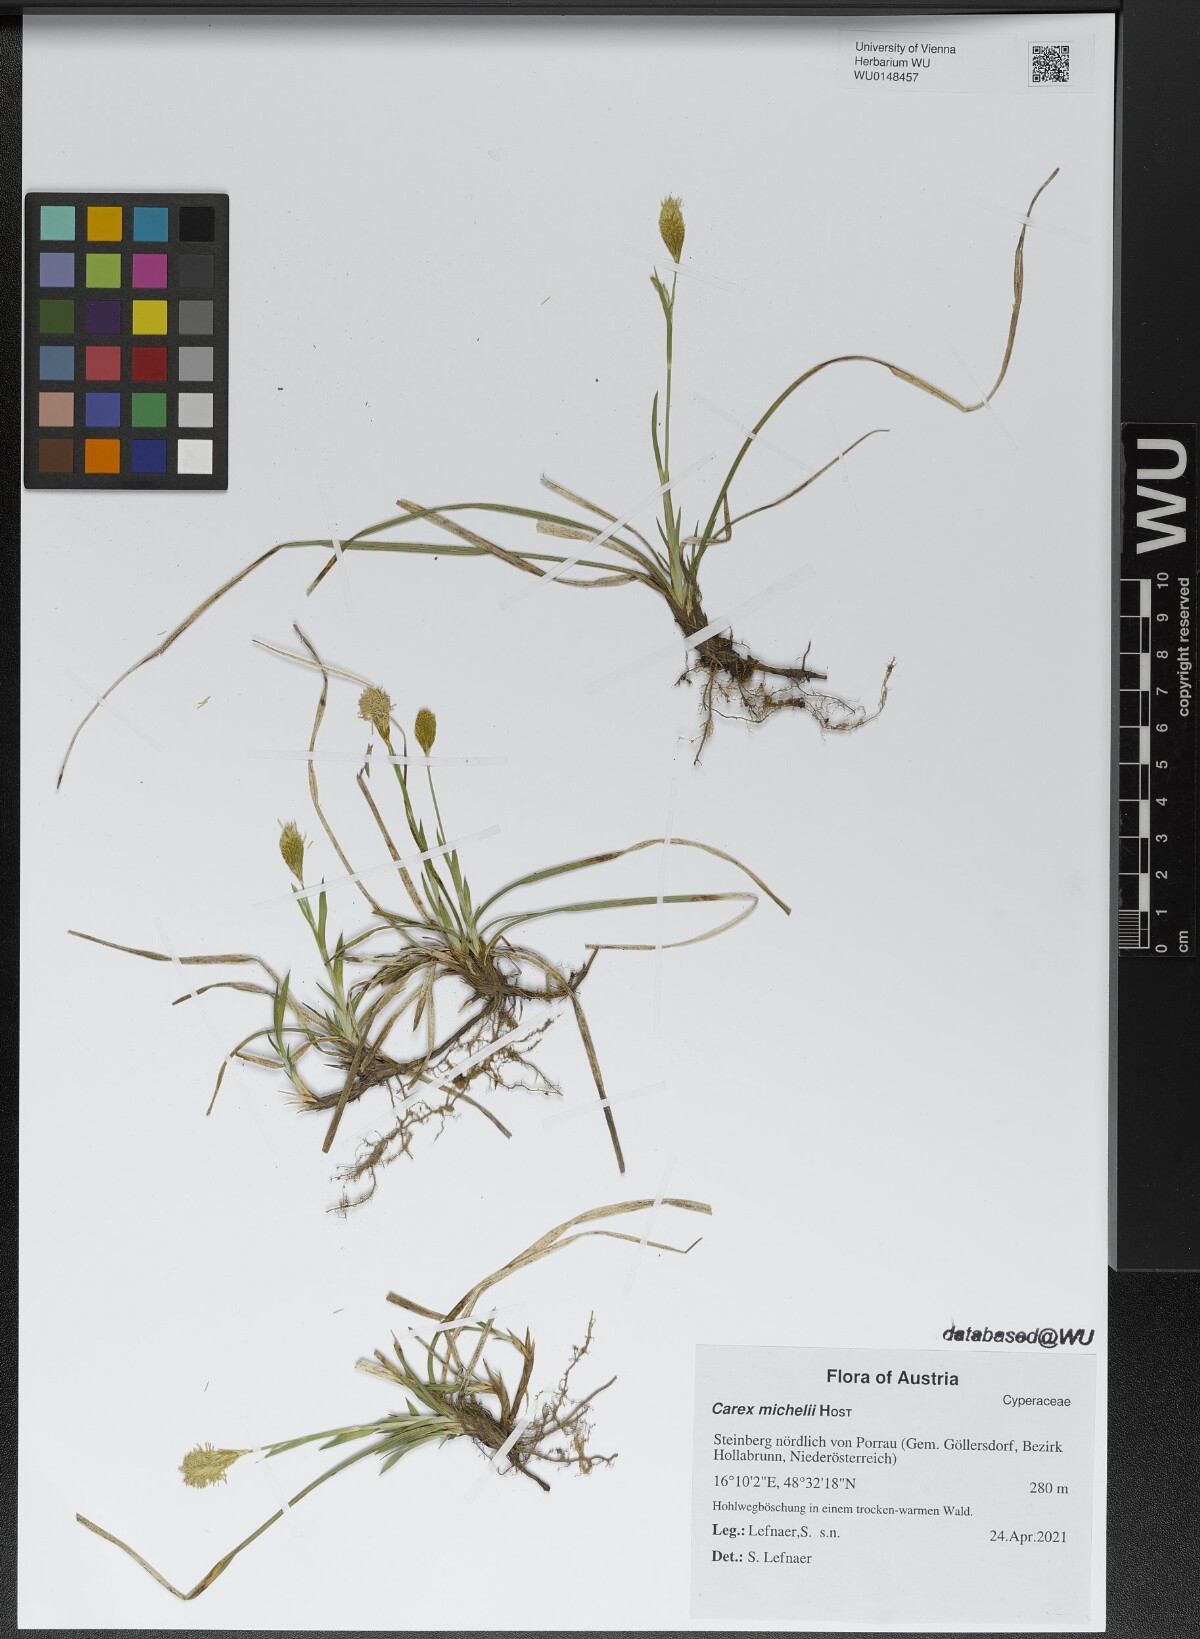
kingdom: Plantae
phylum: Tracheophyta
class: Liliopsida
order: Poales
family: Cyperaceae
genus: Carex
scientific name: Carex michelii
